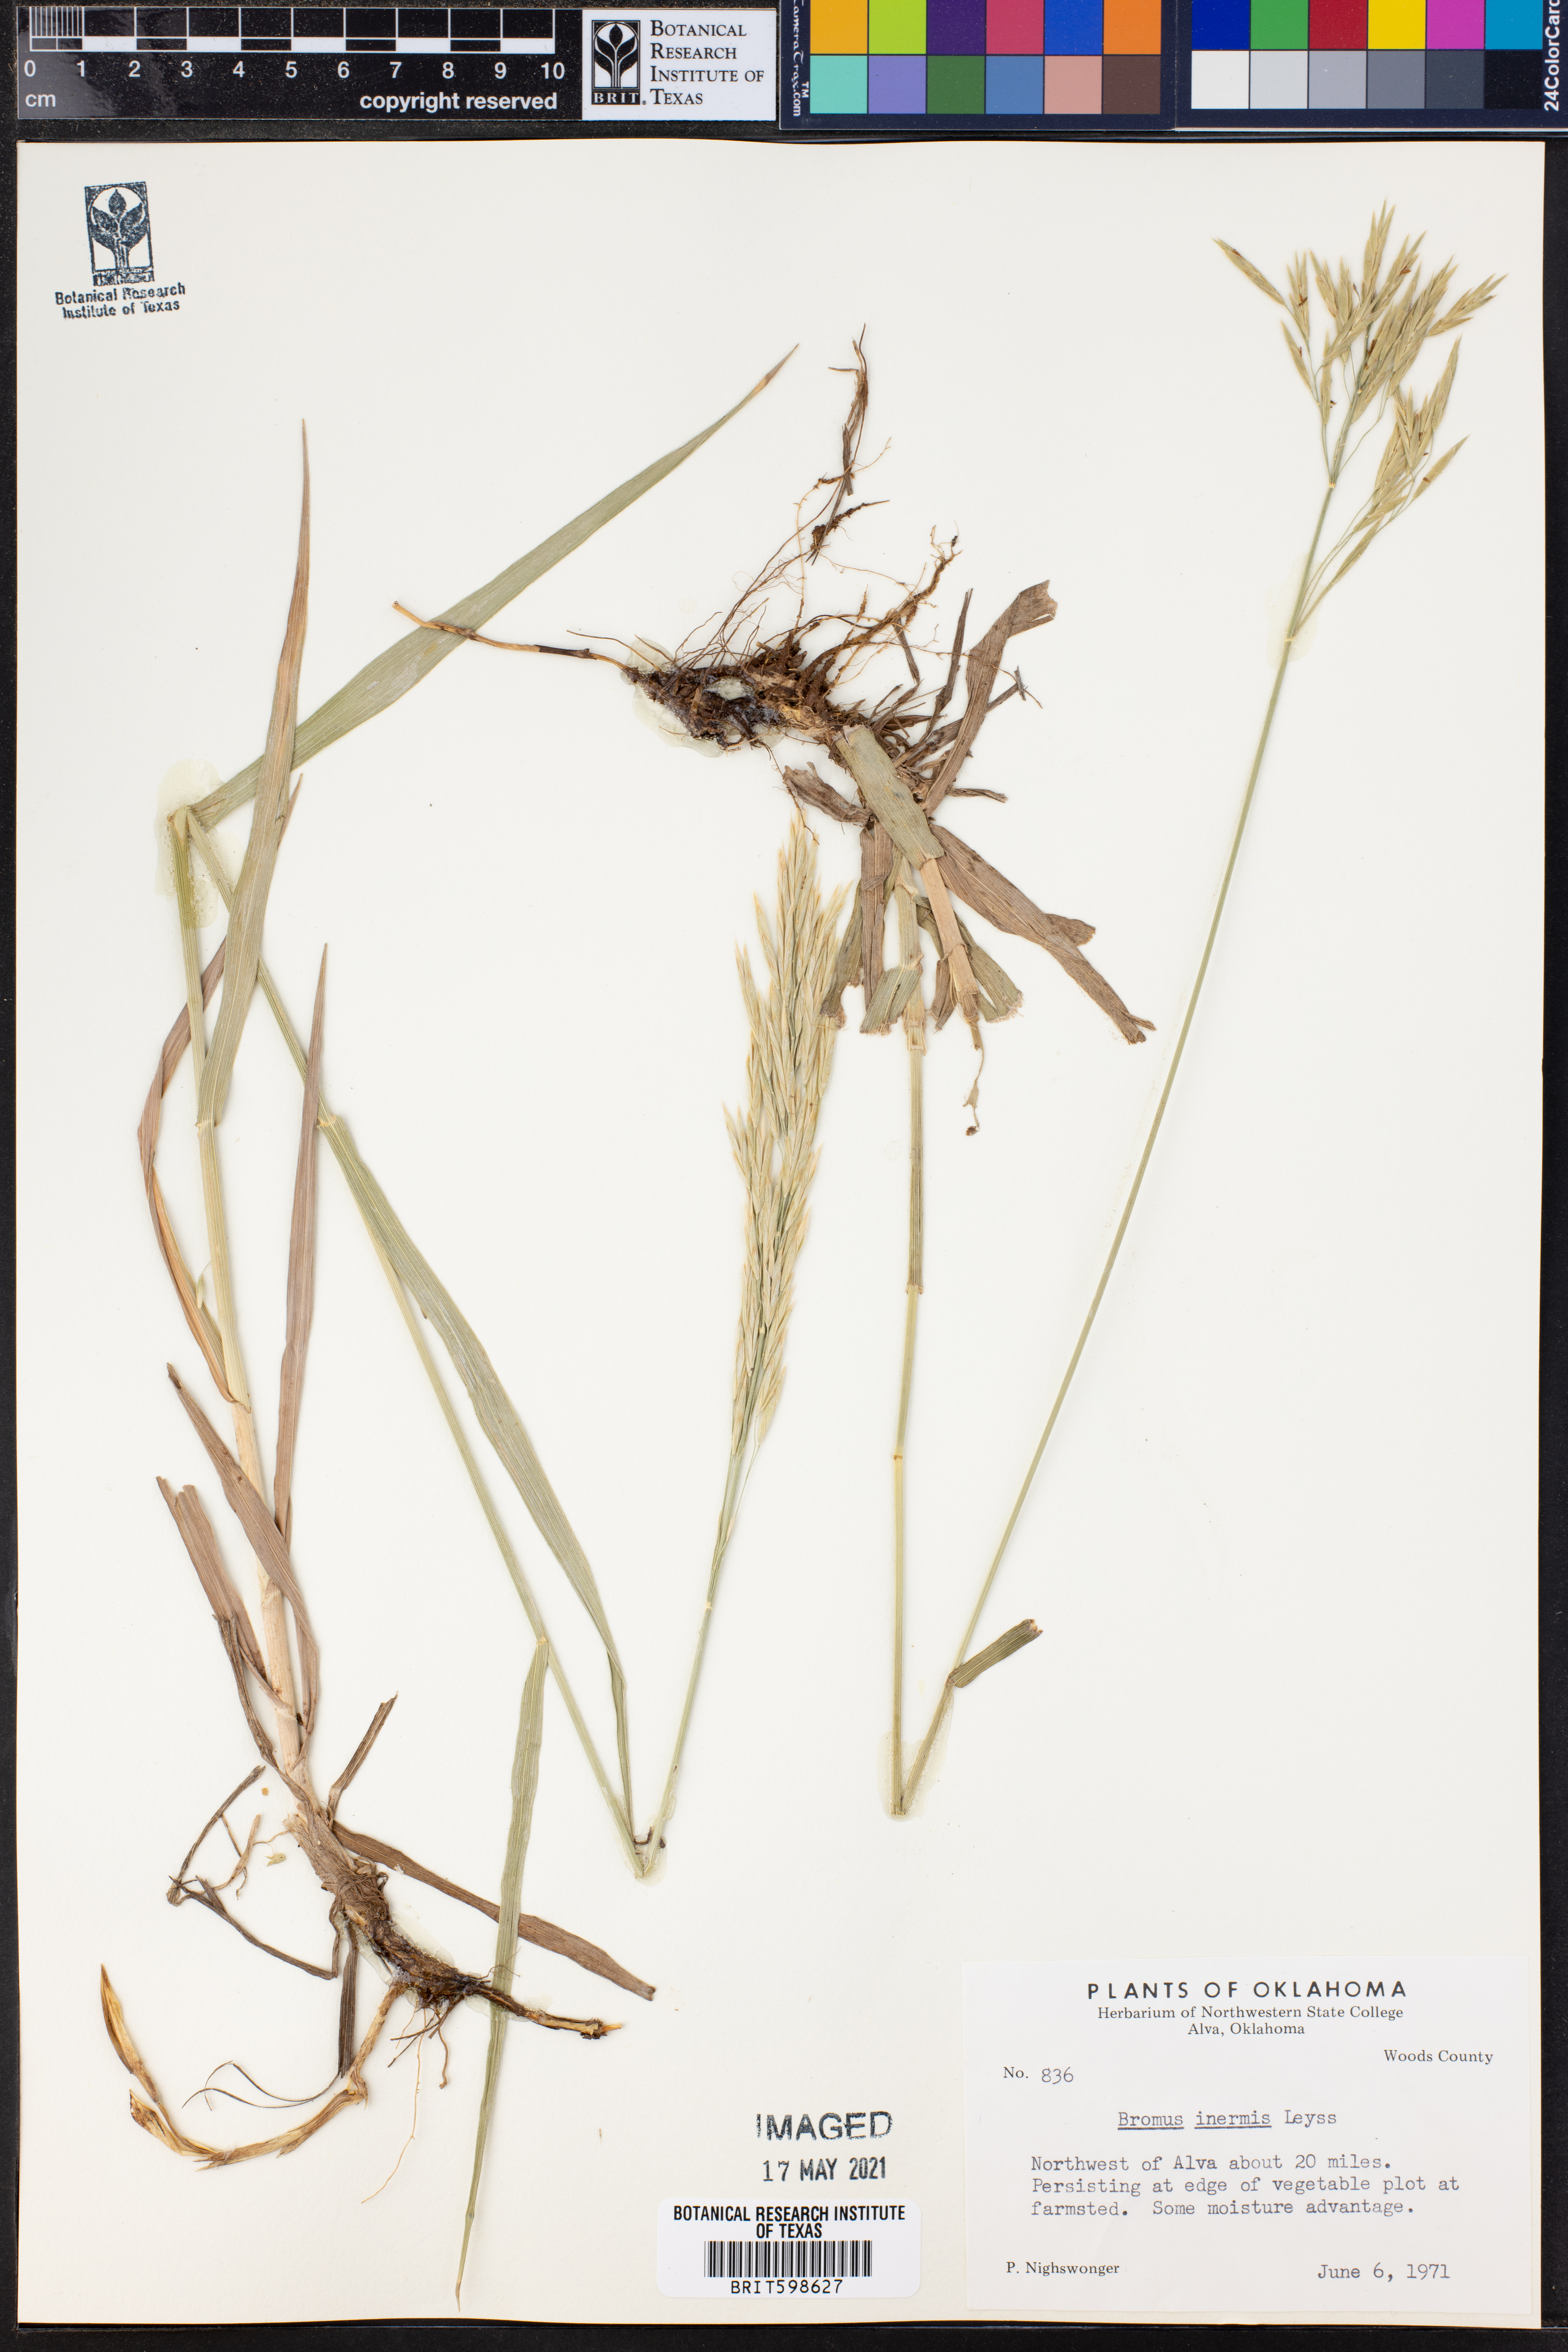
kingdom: Plantae
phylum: Tracheophyta
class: Liliopsida
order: Poales
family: Poaceae
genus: Bromus
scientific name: Bromus inermis
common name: Smooth brome
